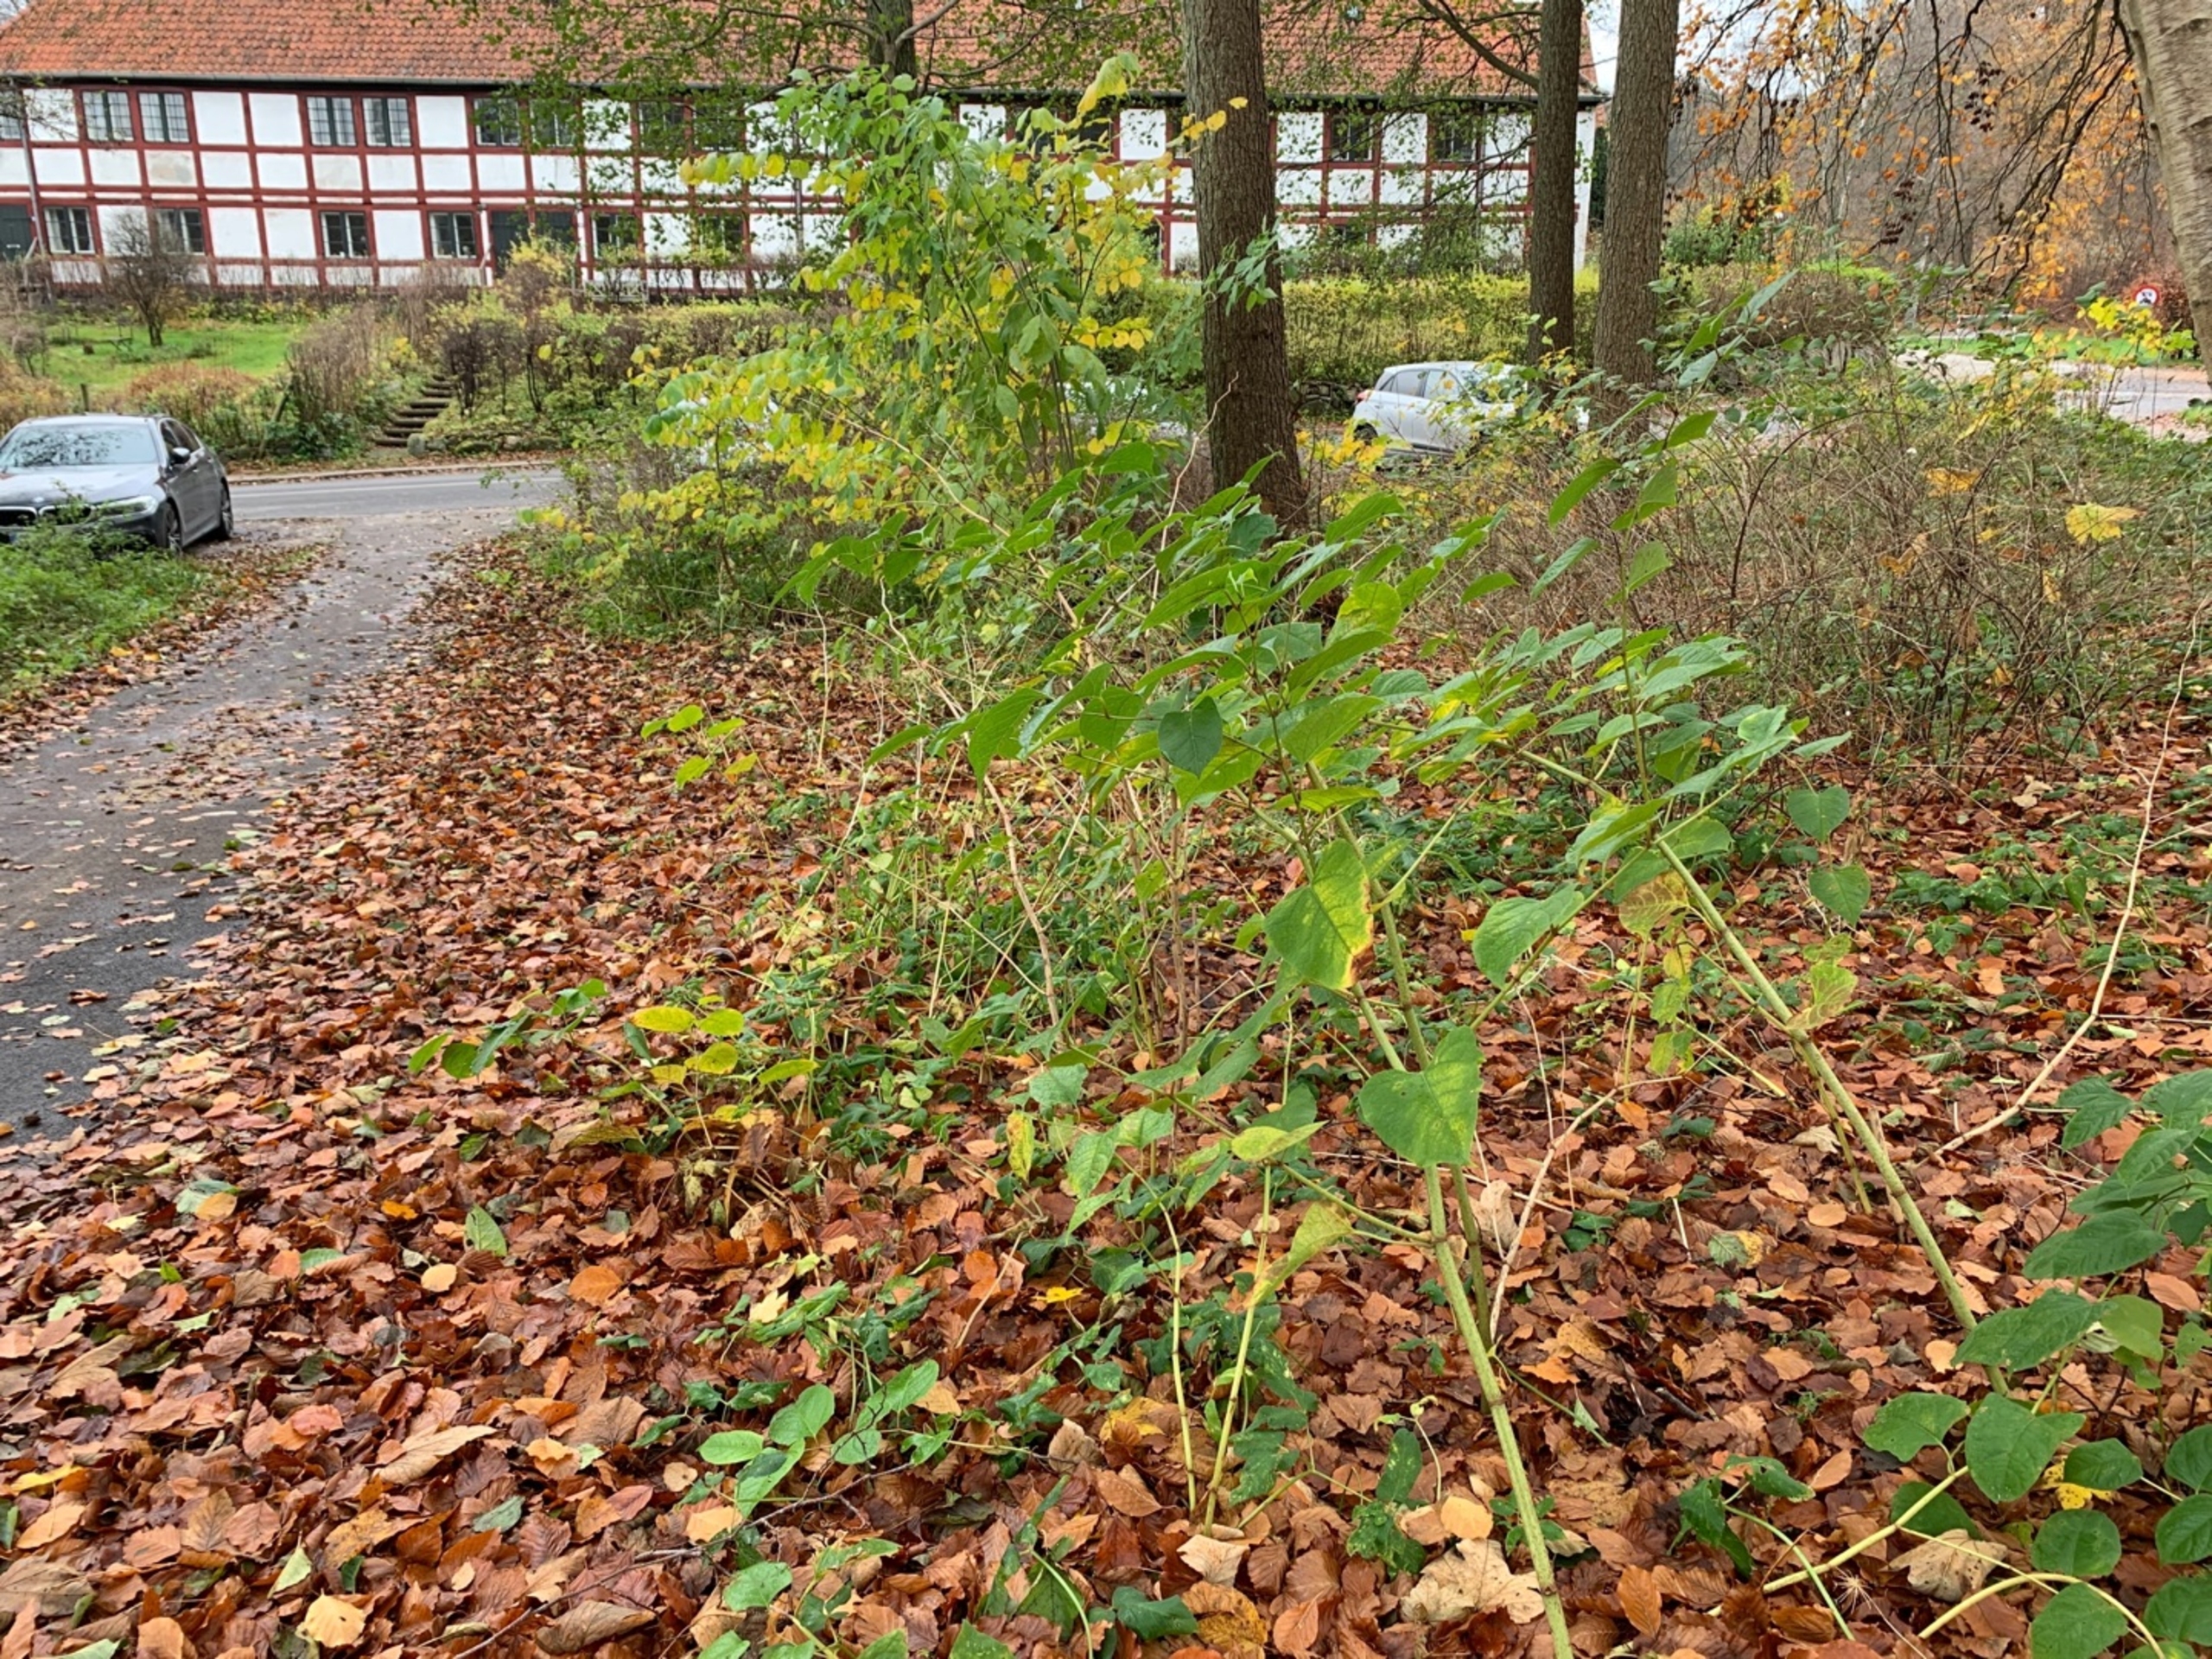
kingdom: Plantae
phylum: Tracheophyta
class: Magnoliopsida
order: Caryophyllales
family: Polygonaceae
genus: Reynoutria
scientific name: Reynoutria japonica
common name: Japan-pileurt
